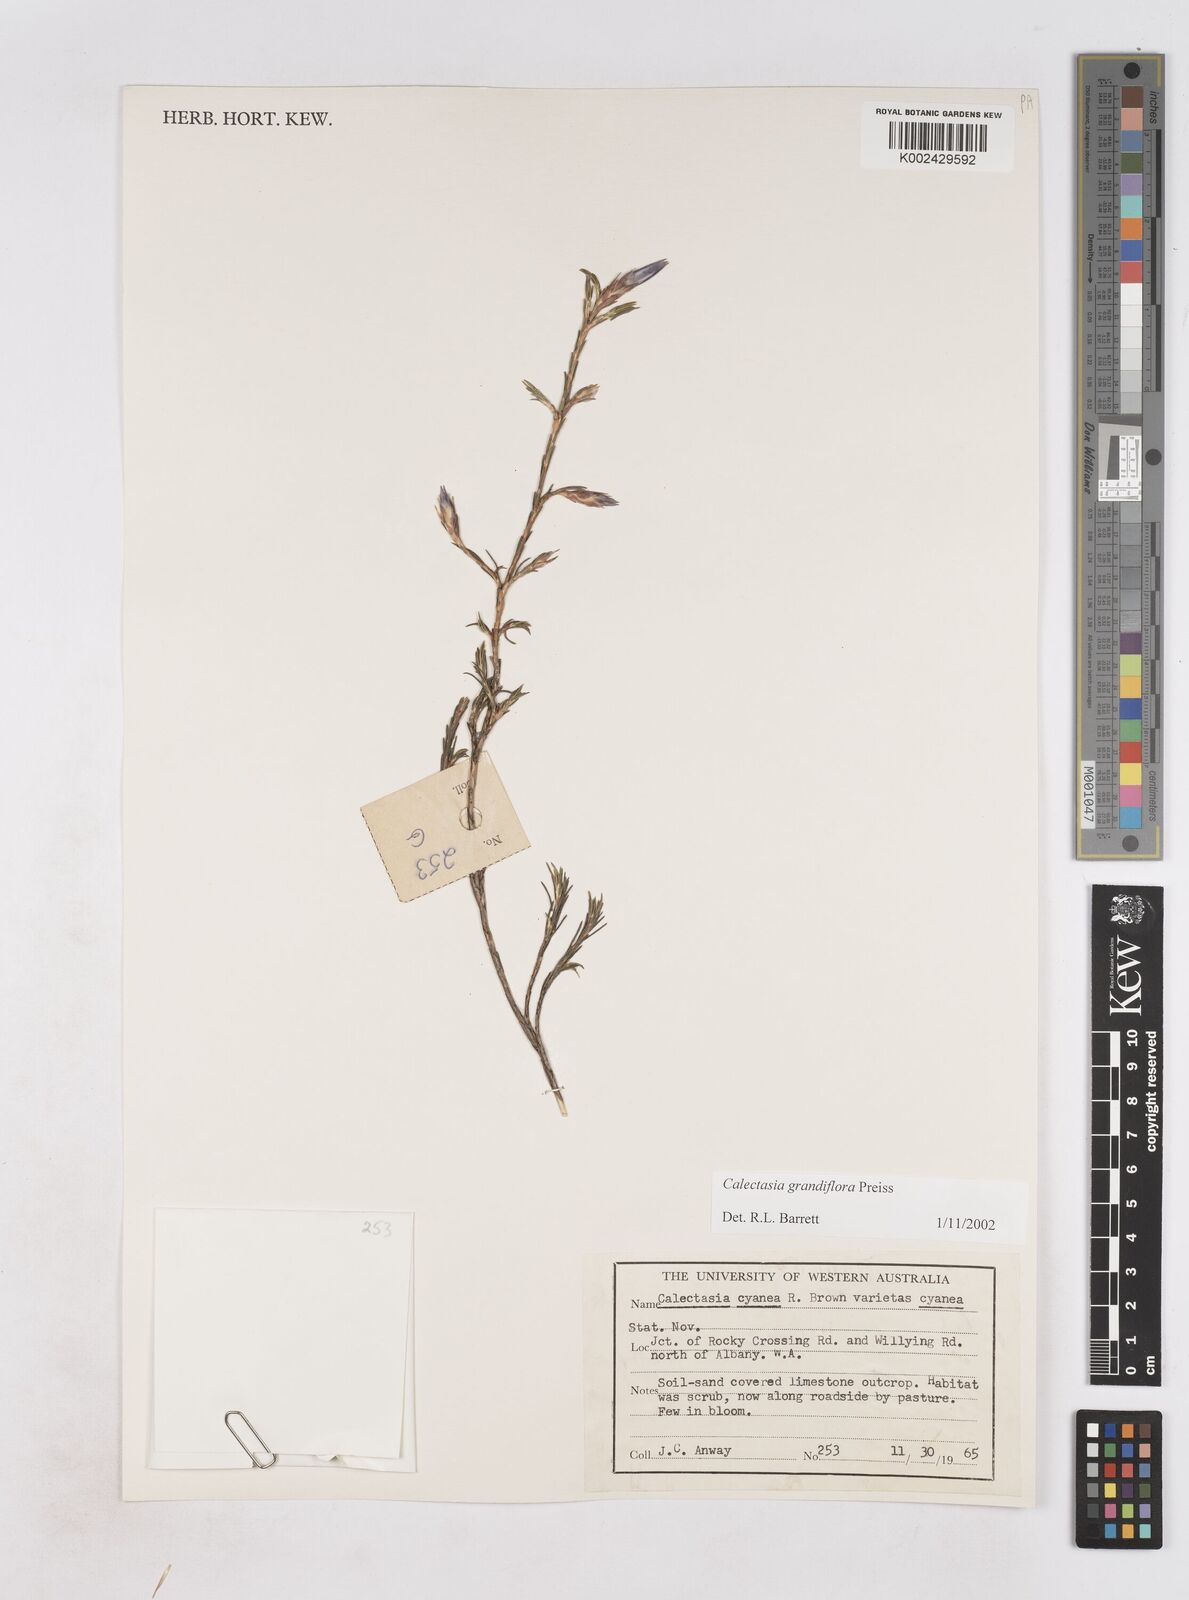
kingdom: Plantae
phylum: Tracheophyta
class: Liliopsida
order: Arecales
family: Dasypogonaceae
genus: Calectasia
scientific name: Calectasia grandiflora
